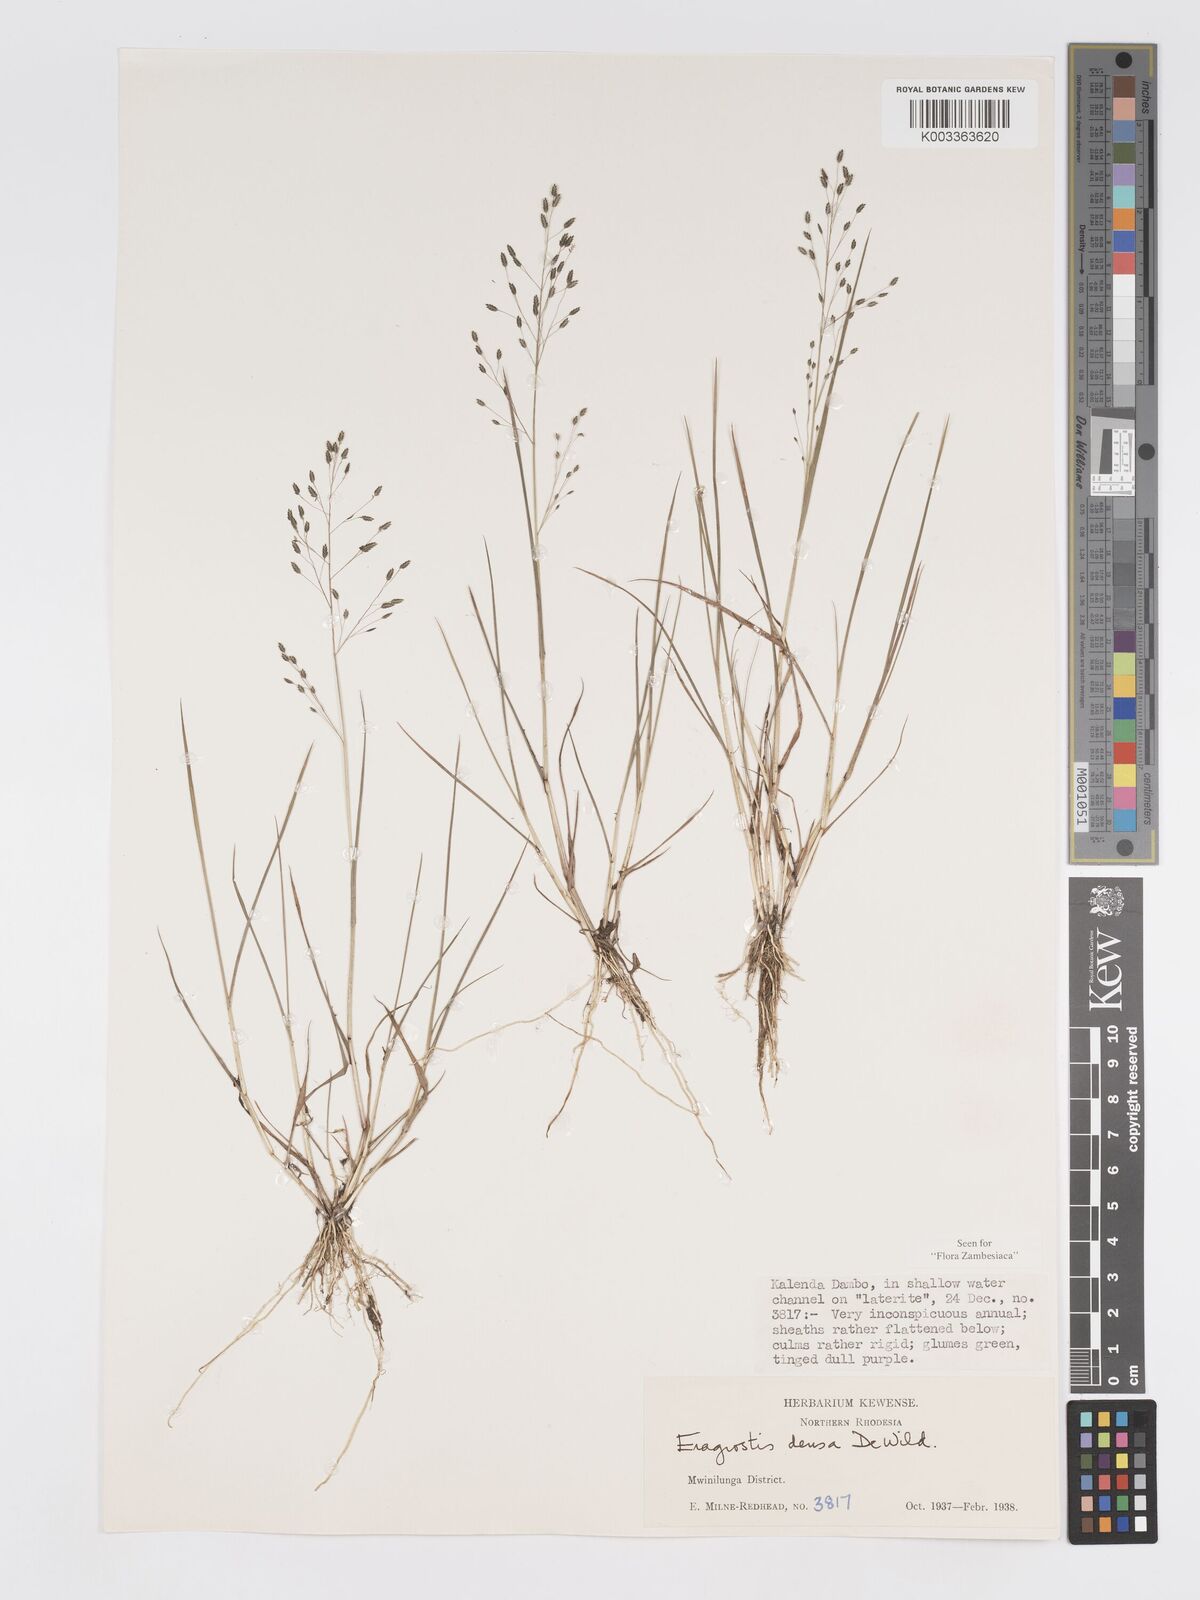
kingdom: Plantae
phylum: Tracheophyta
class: Liliopsida
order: Poales
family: Poaceae
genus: Eragrostis
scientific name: Eragrostis welwitschii
